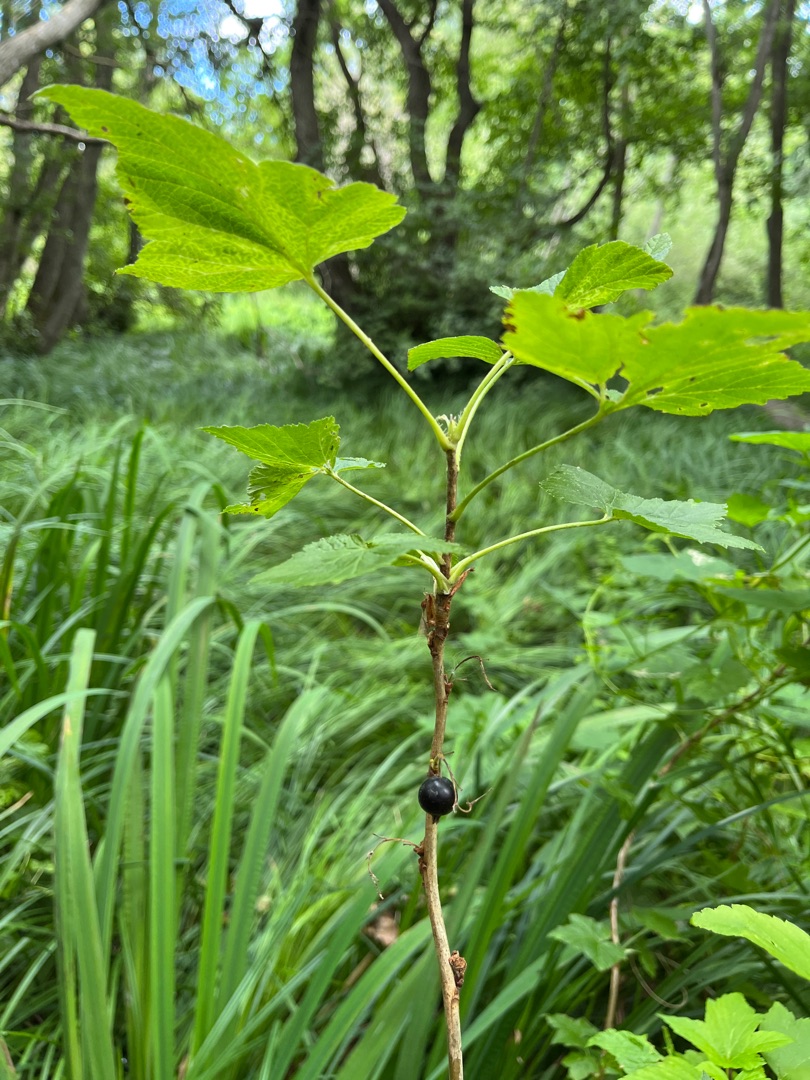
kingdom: Plantae
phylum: Tracheophyta
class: Magnoliopsida
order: Saxifragales
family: Grossulariaceae
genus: Ribes
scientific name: Ribes nigrum
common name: Solbær
